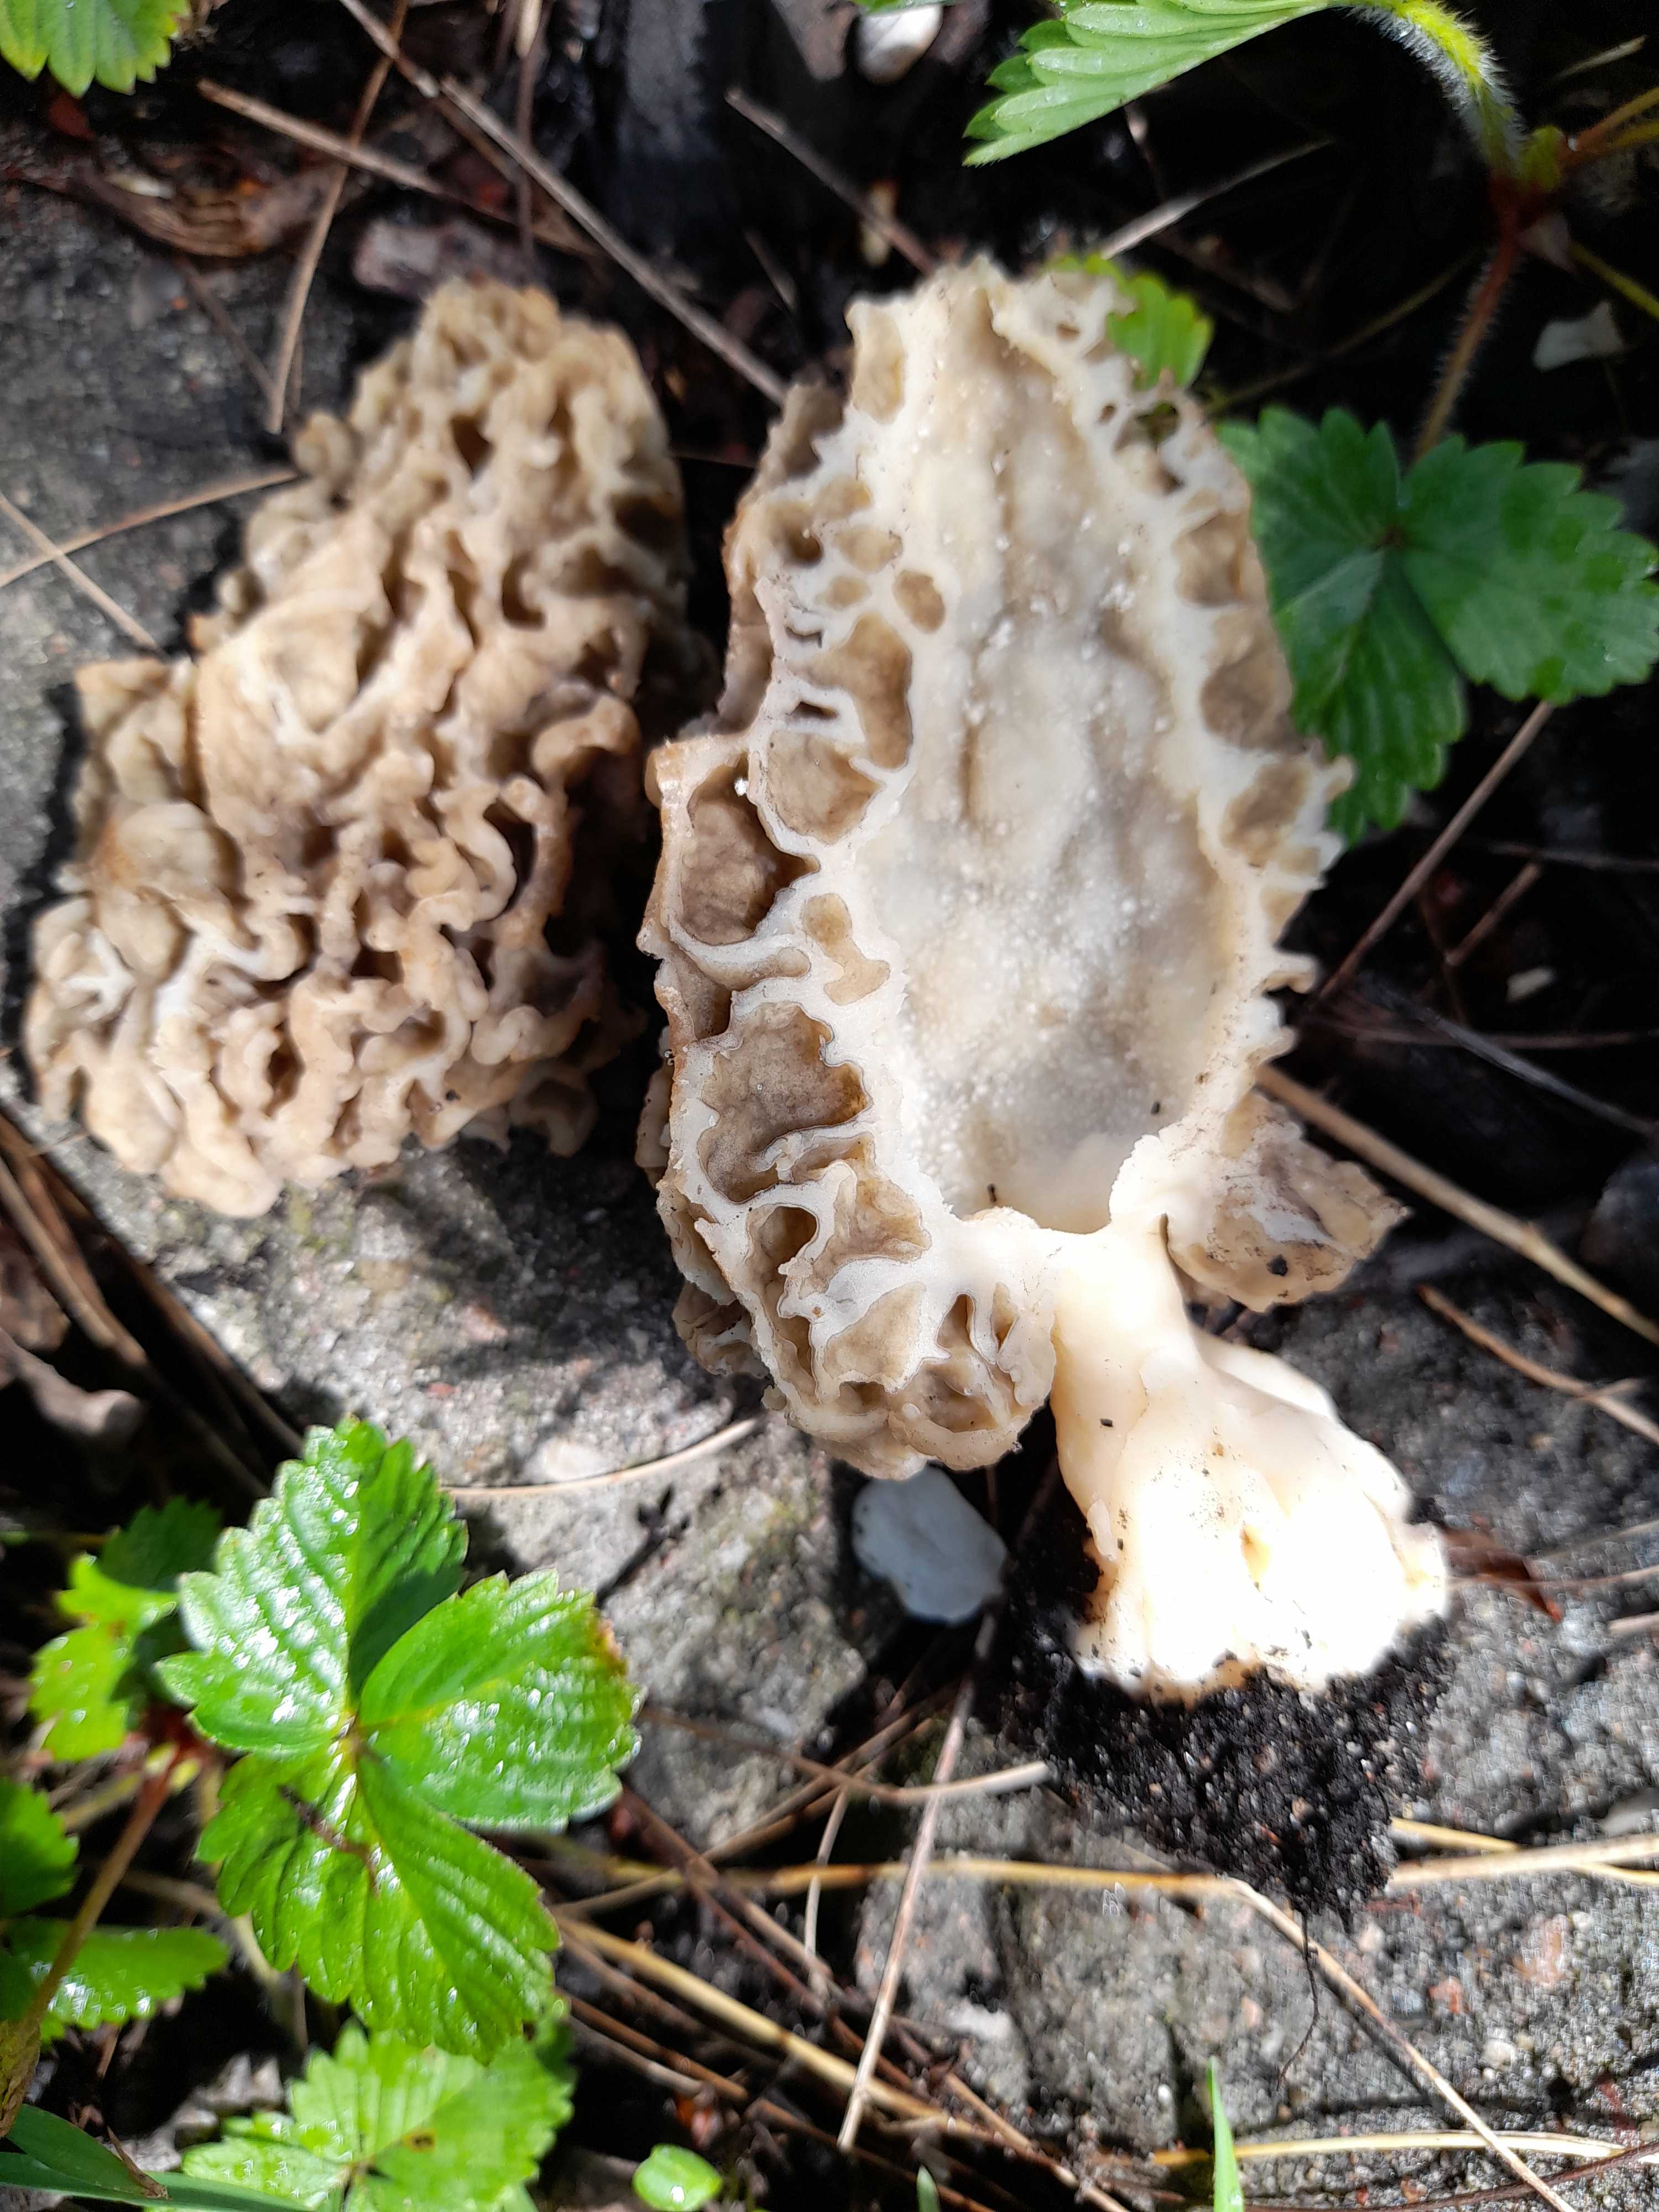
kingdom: Fungi
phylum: Ascomycota
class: Pezizomycetes
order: Pezizales
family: Morchellaceae
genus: Morchella
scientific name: Morchella esculenta
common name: almindelig morkel
